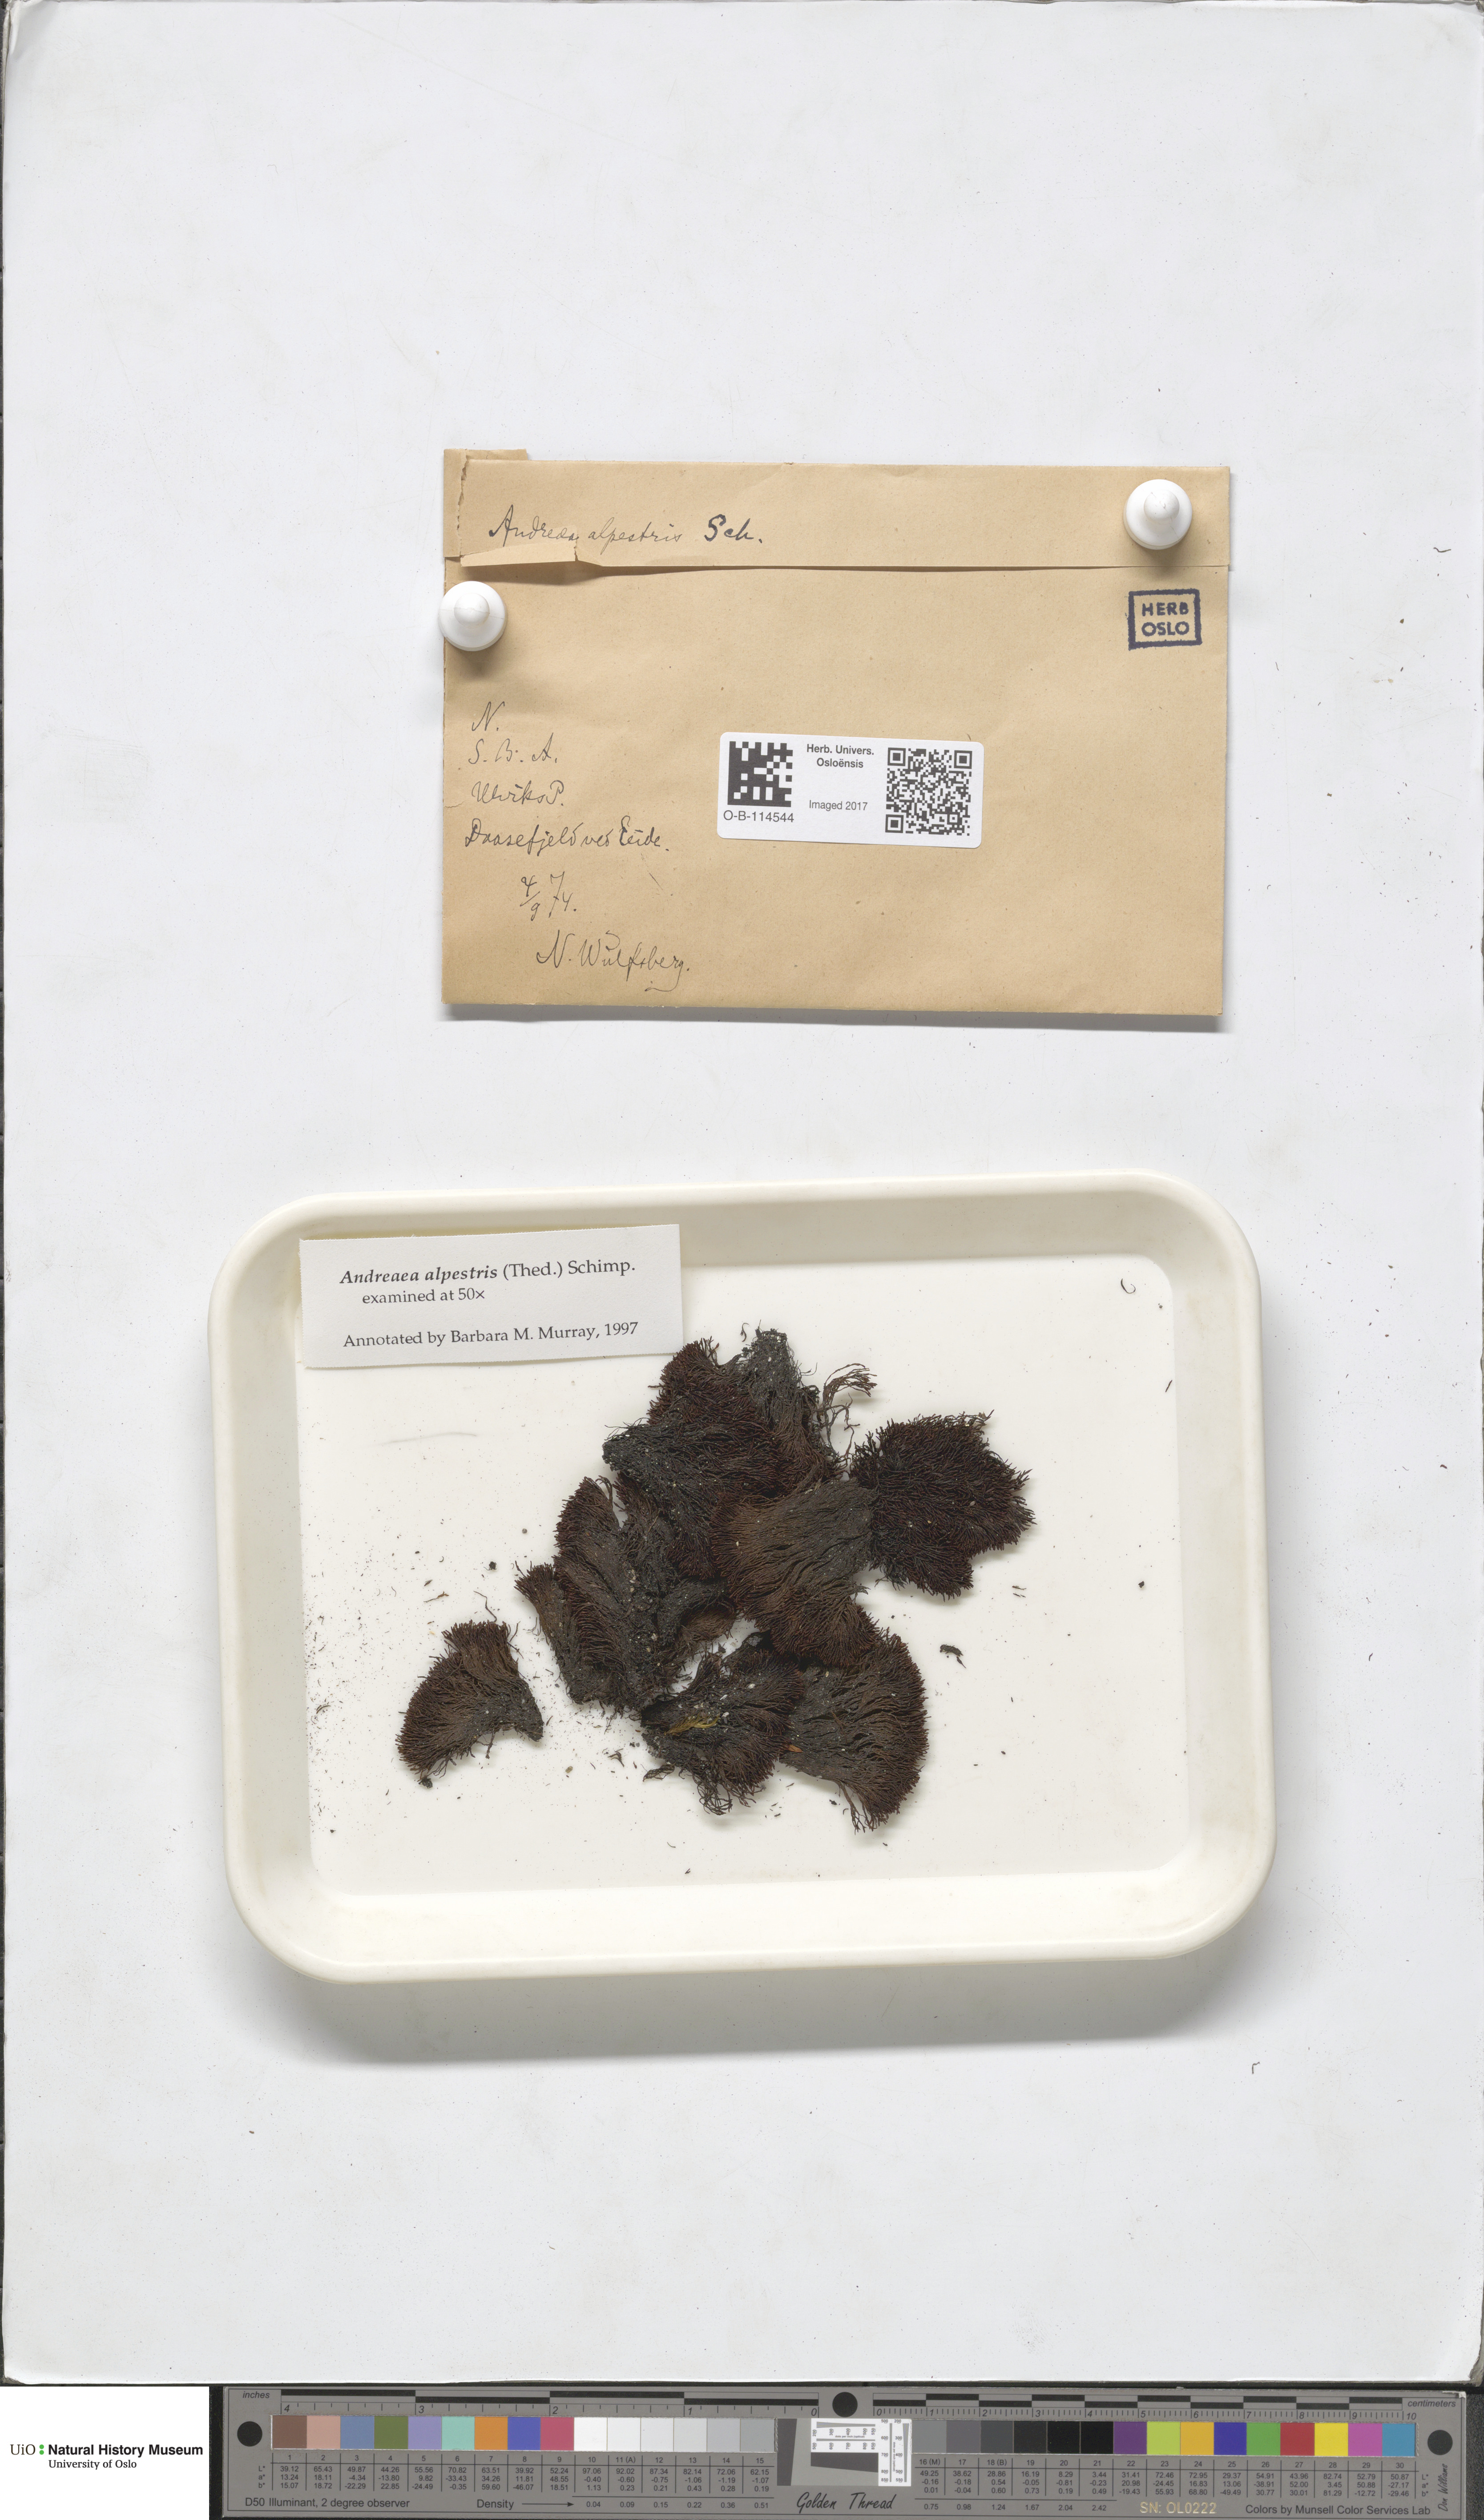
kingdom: Plantae
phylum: Bryophyta
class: Andreaeopsida
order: Andreaeales
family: Andreaeaceae
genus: Andreaea
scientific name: Andreaea alpestris
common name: Slender rock-moss
